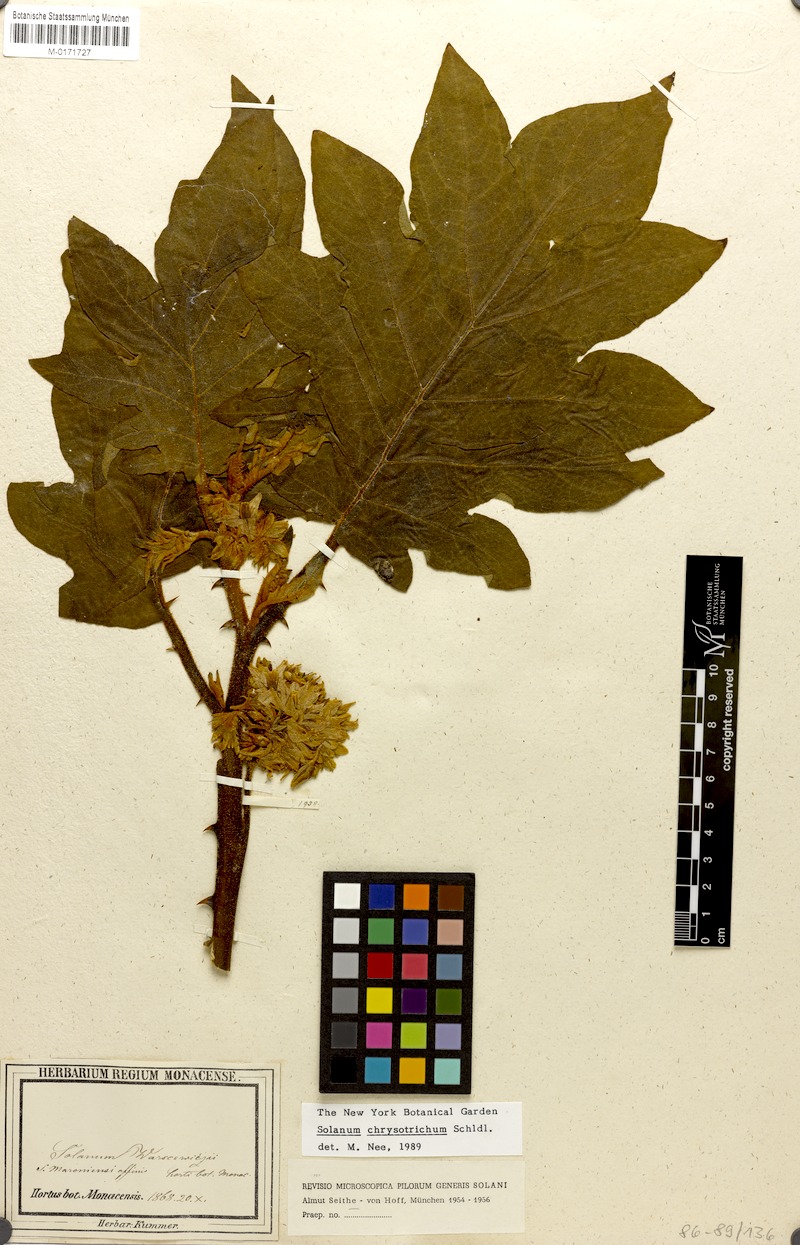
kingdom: Plantae
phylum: Tracheophyta
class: Magnoliopsida
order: Solanales
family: Solanaceae
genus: Solanum
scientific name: Solanum chrysotrichum
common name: Nightshade
